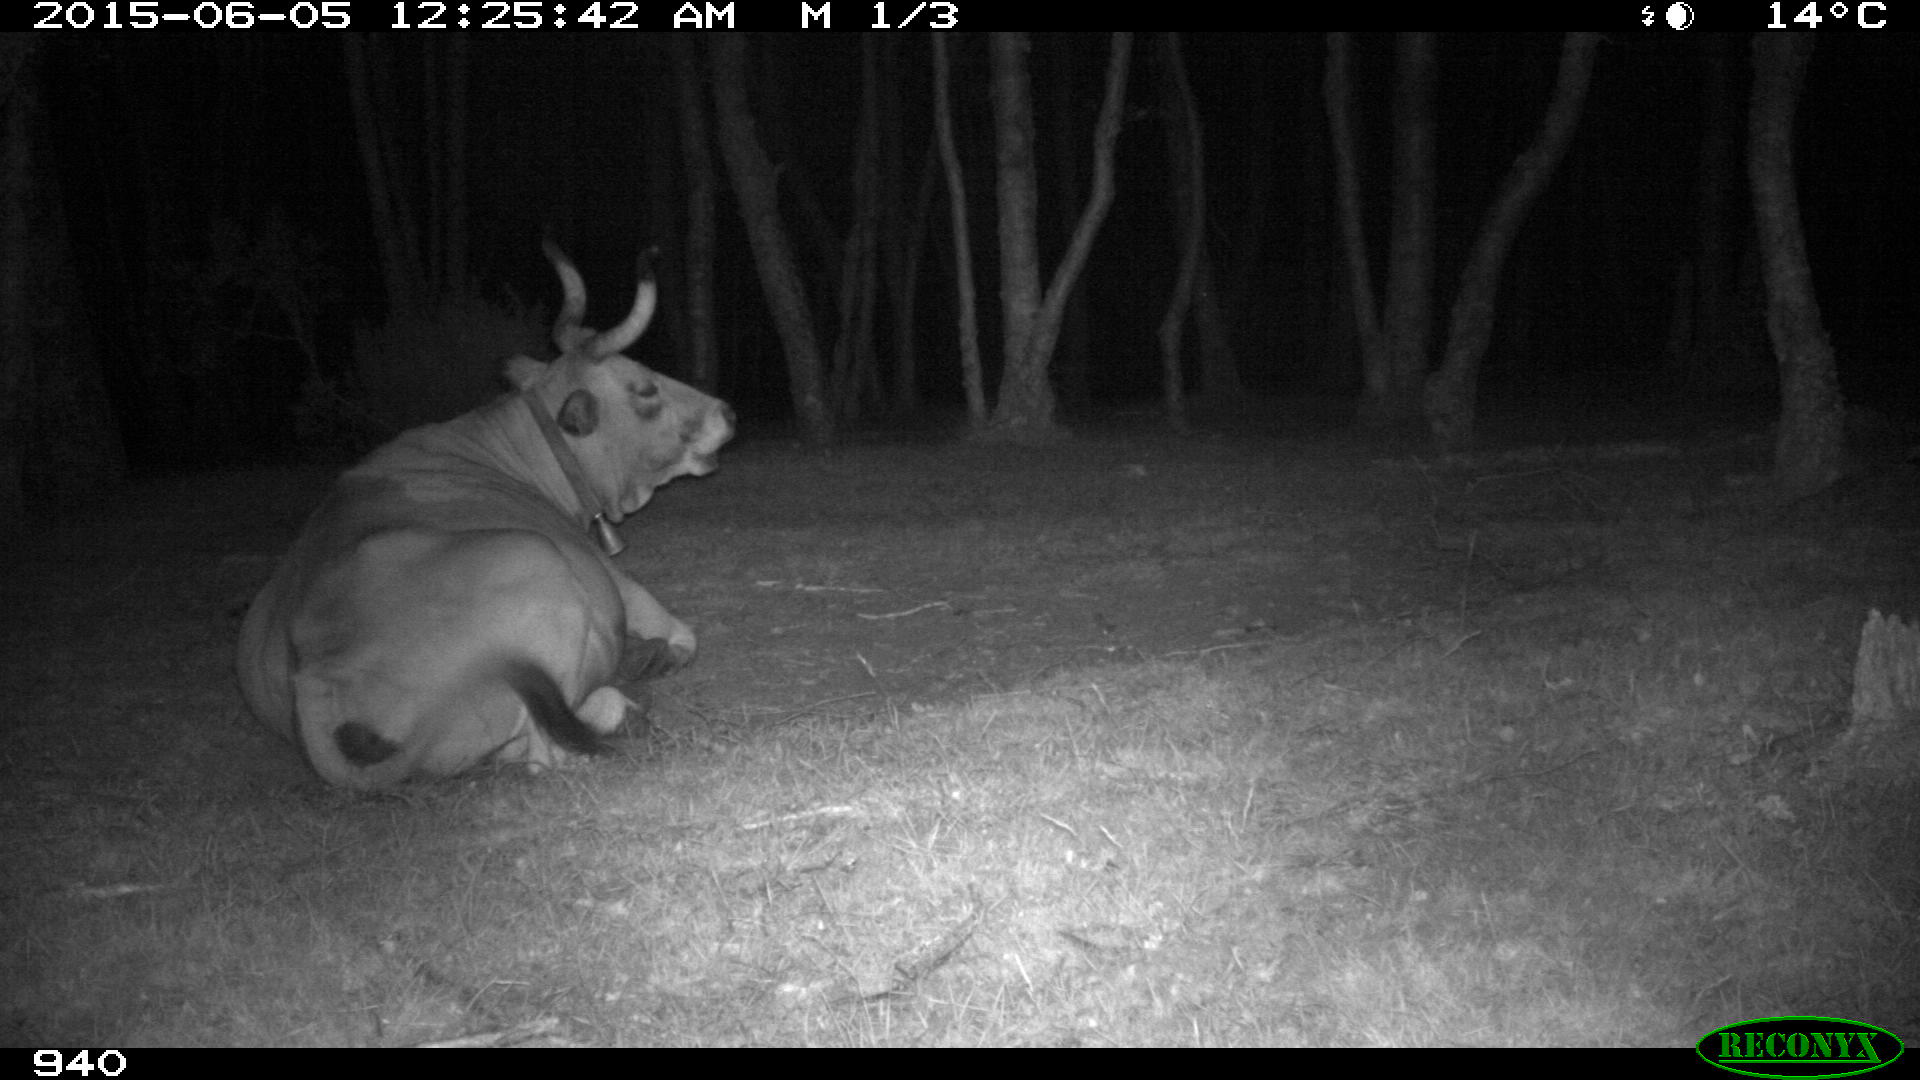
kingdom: Animalia
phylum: Chordata
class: Mammalia
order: Artiodactyla
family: Bovidae
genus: Bos
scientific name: Bos taurus
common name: Domesticated cattle
